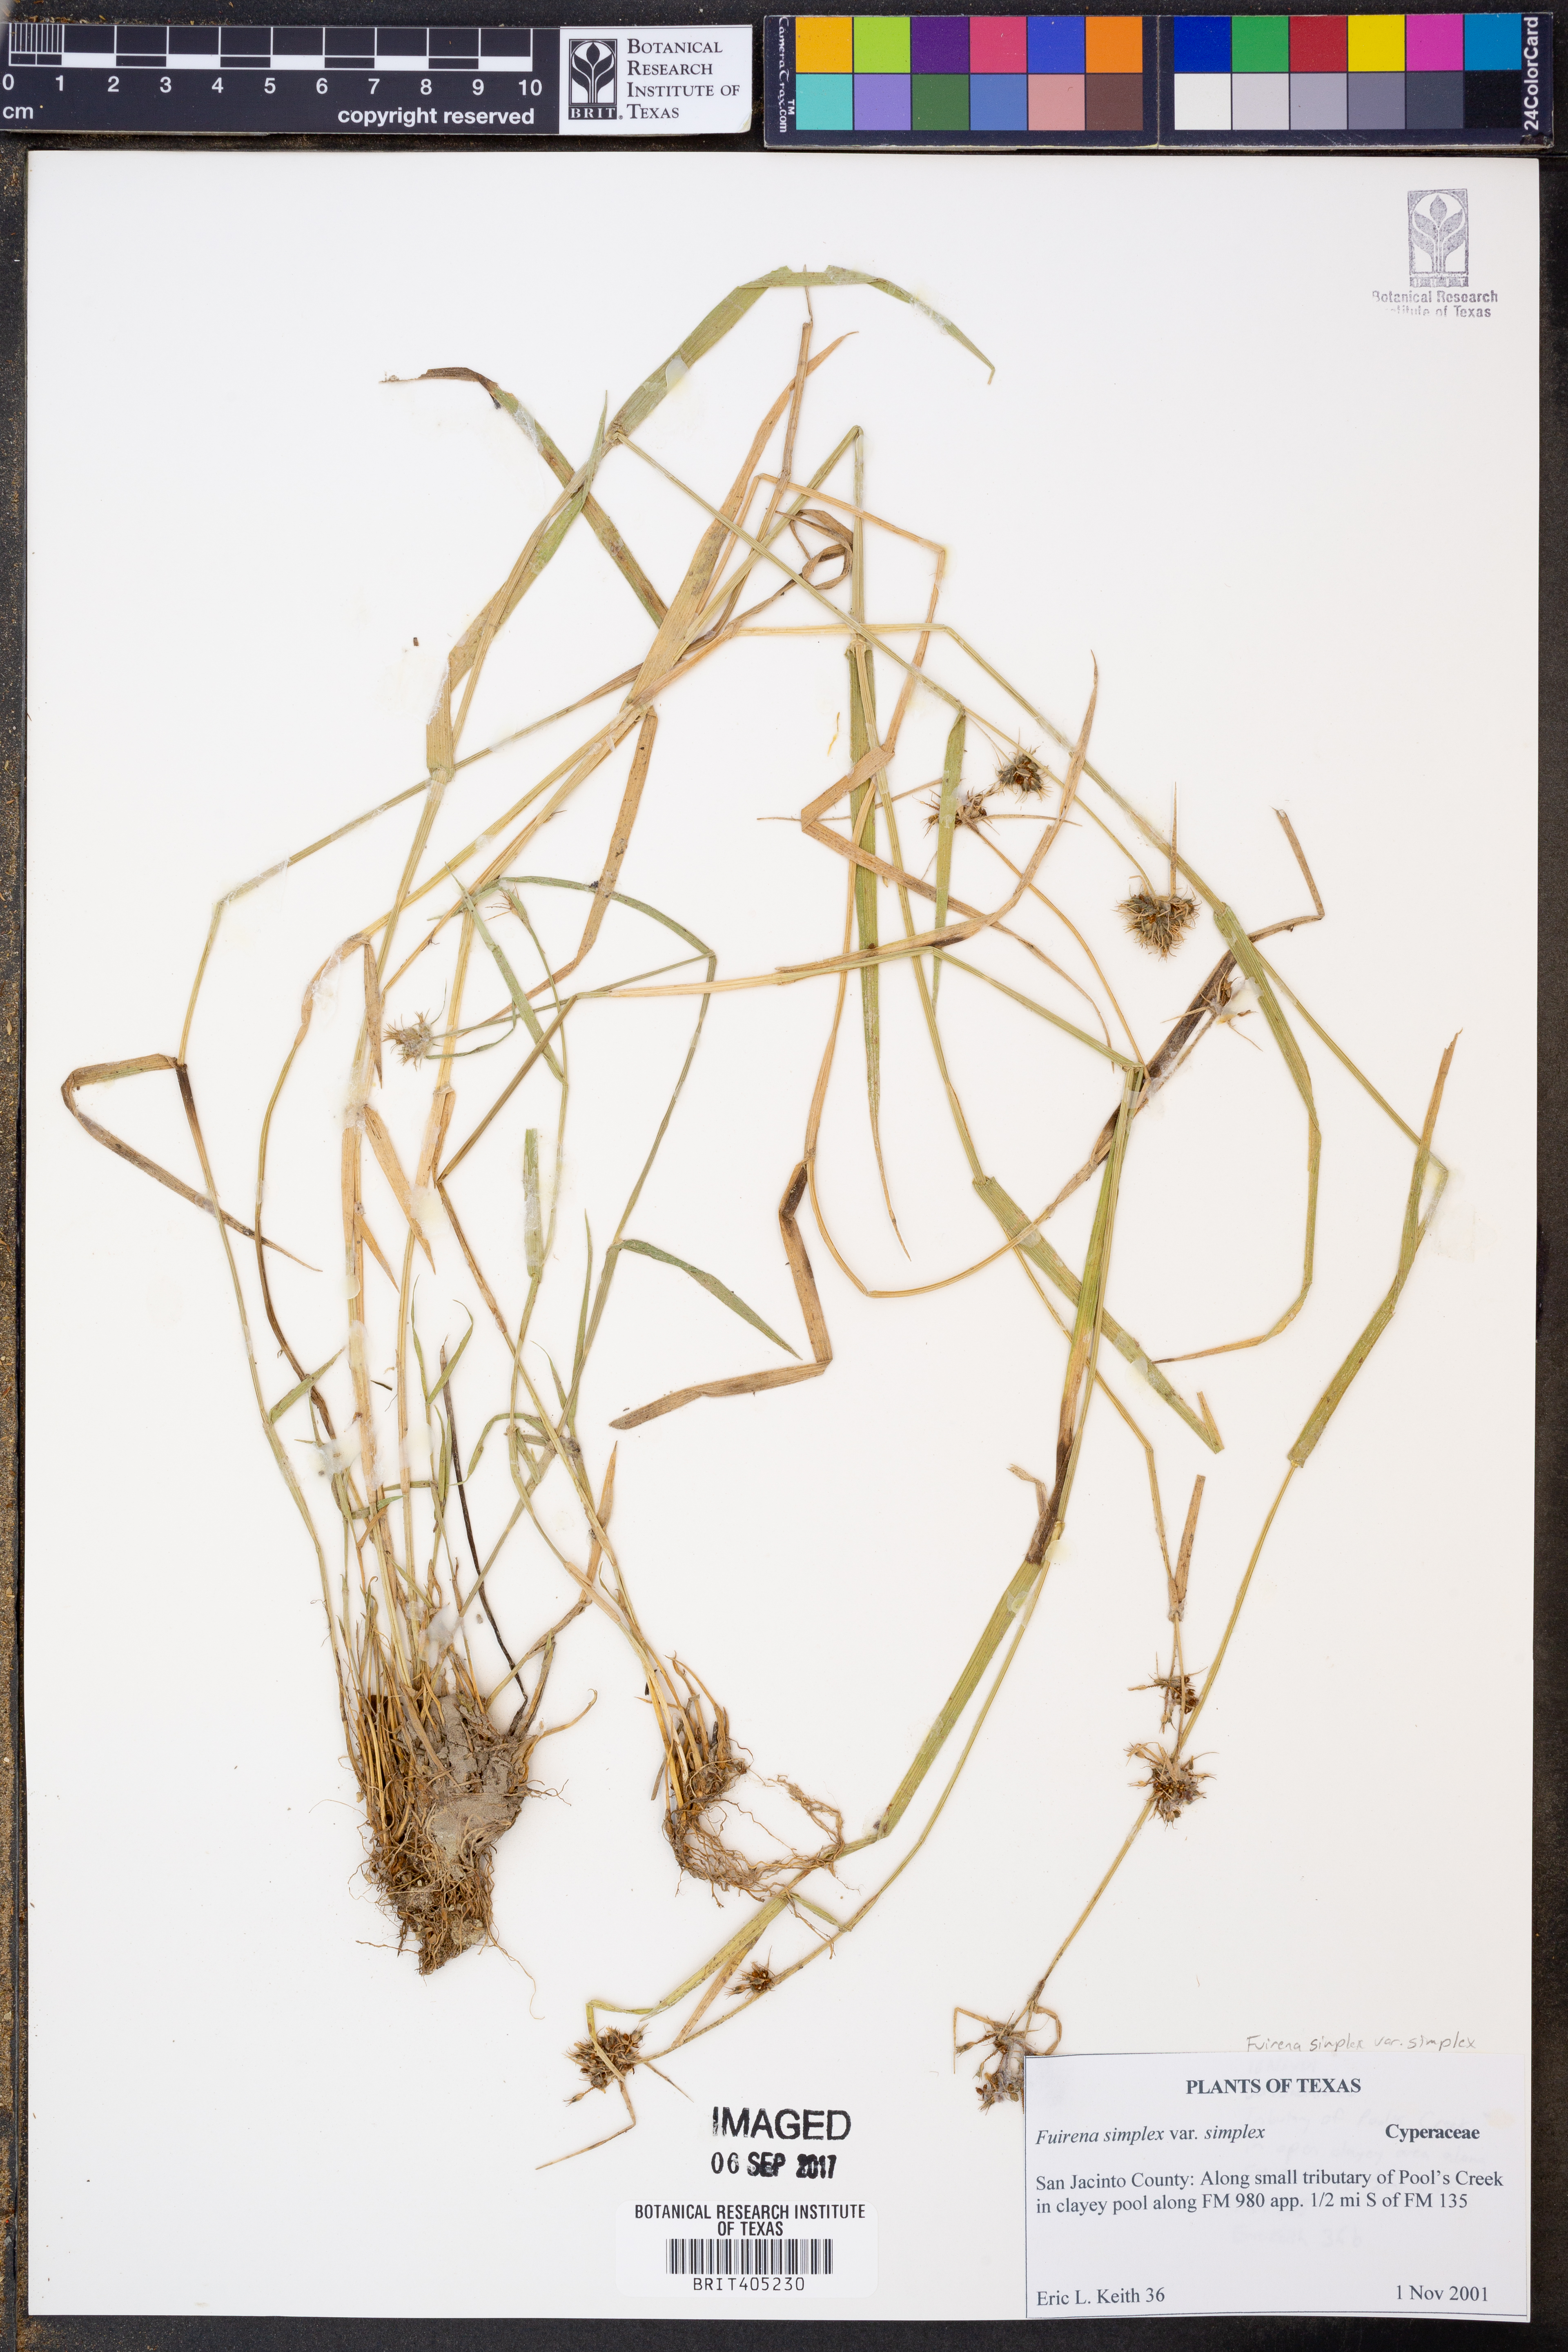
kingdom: Plantae
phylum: Tracheophyta
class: Liliopsida
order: Poales
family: Cyperaceae
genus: Fuirena
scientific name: Fuirena simplex
